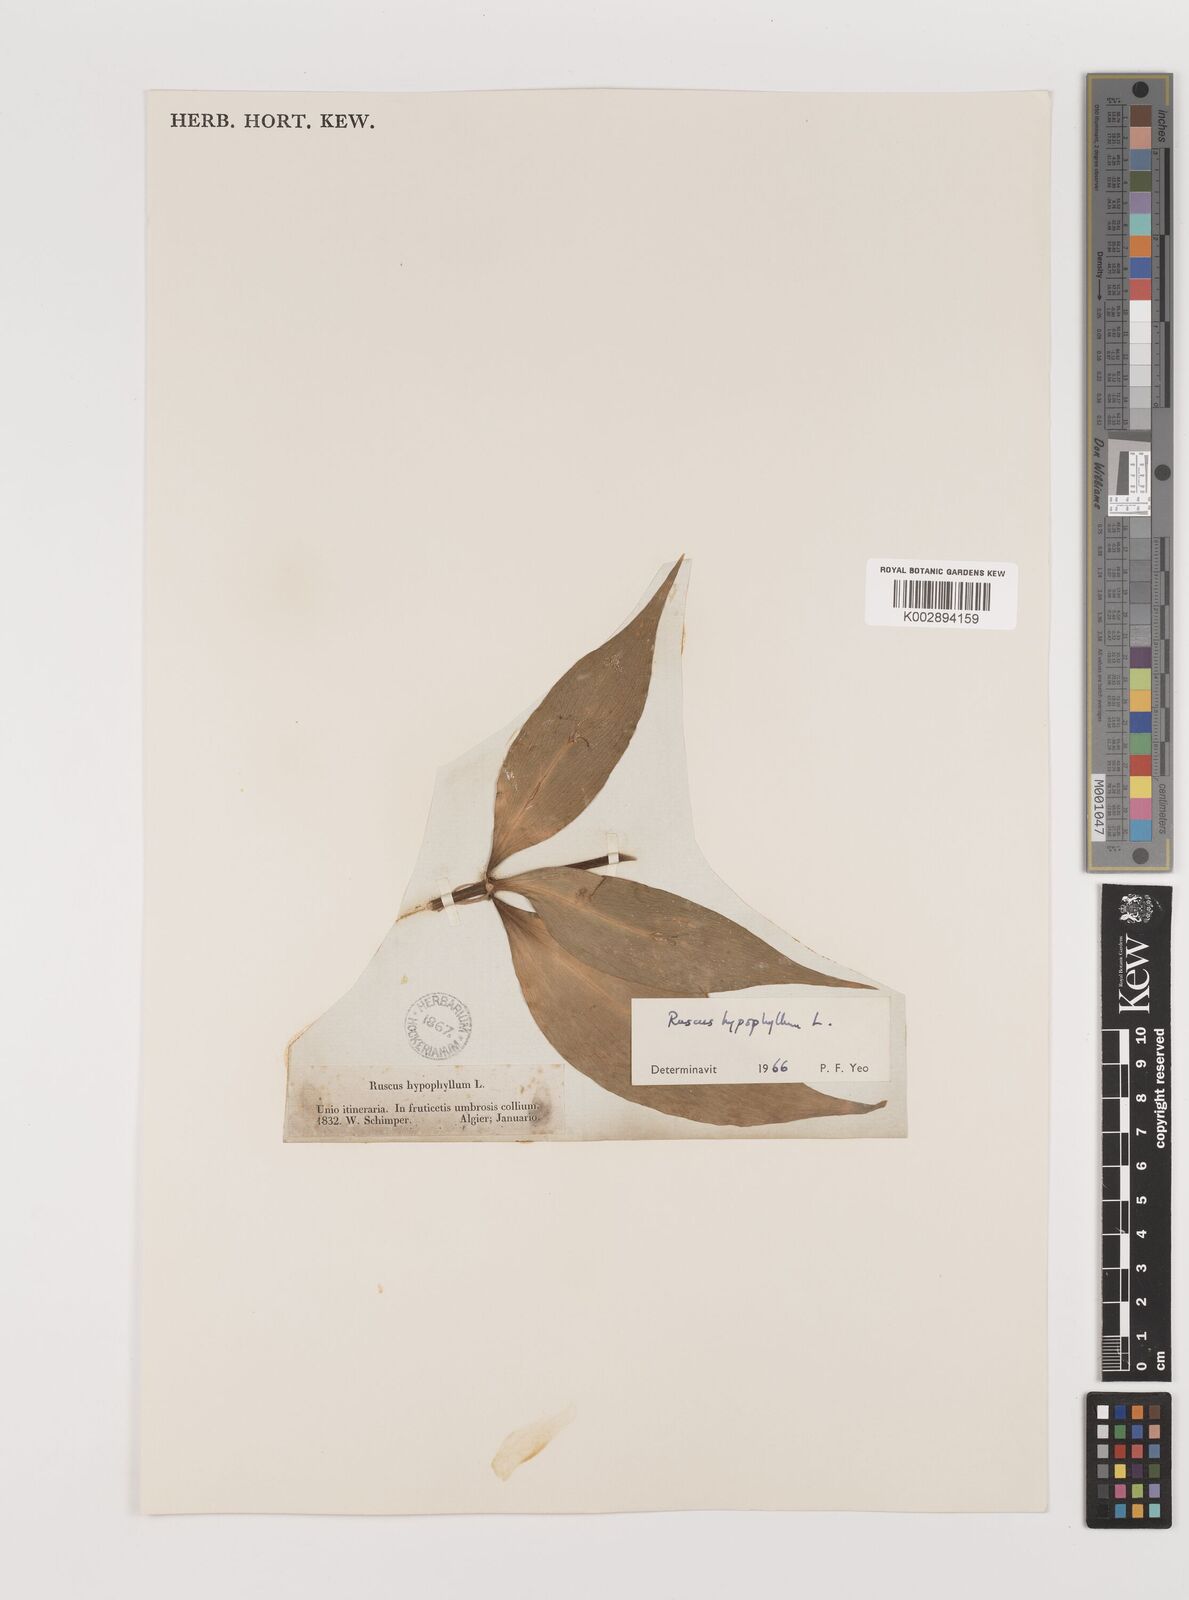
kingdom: Plantae
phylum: Tracheophyta
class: Liliopsida
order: Asparagales
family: Asparagaceae
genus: Ruscus
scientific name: Ruscus hypophyllum
